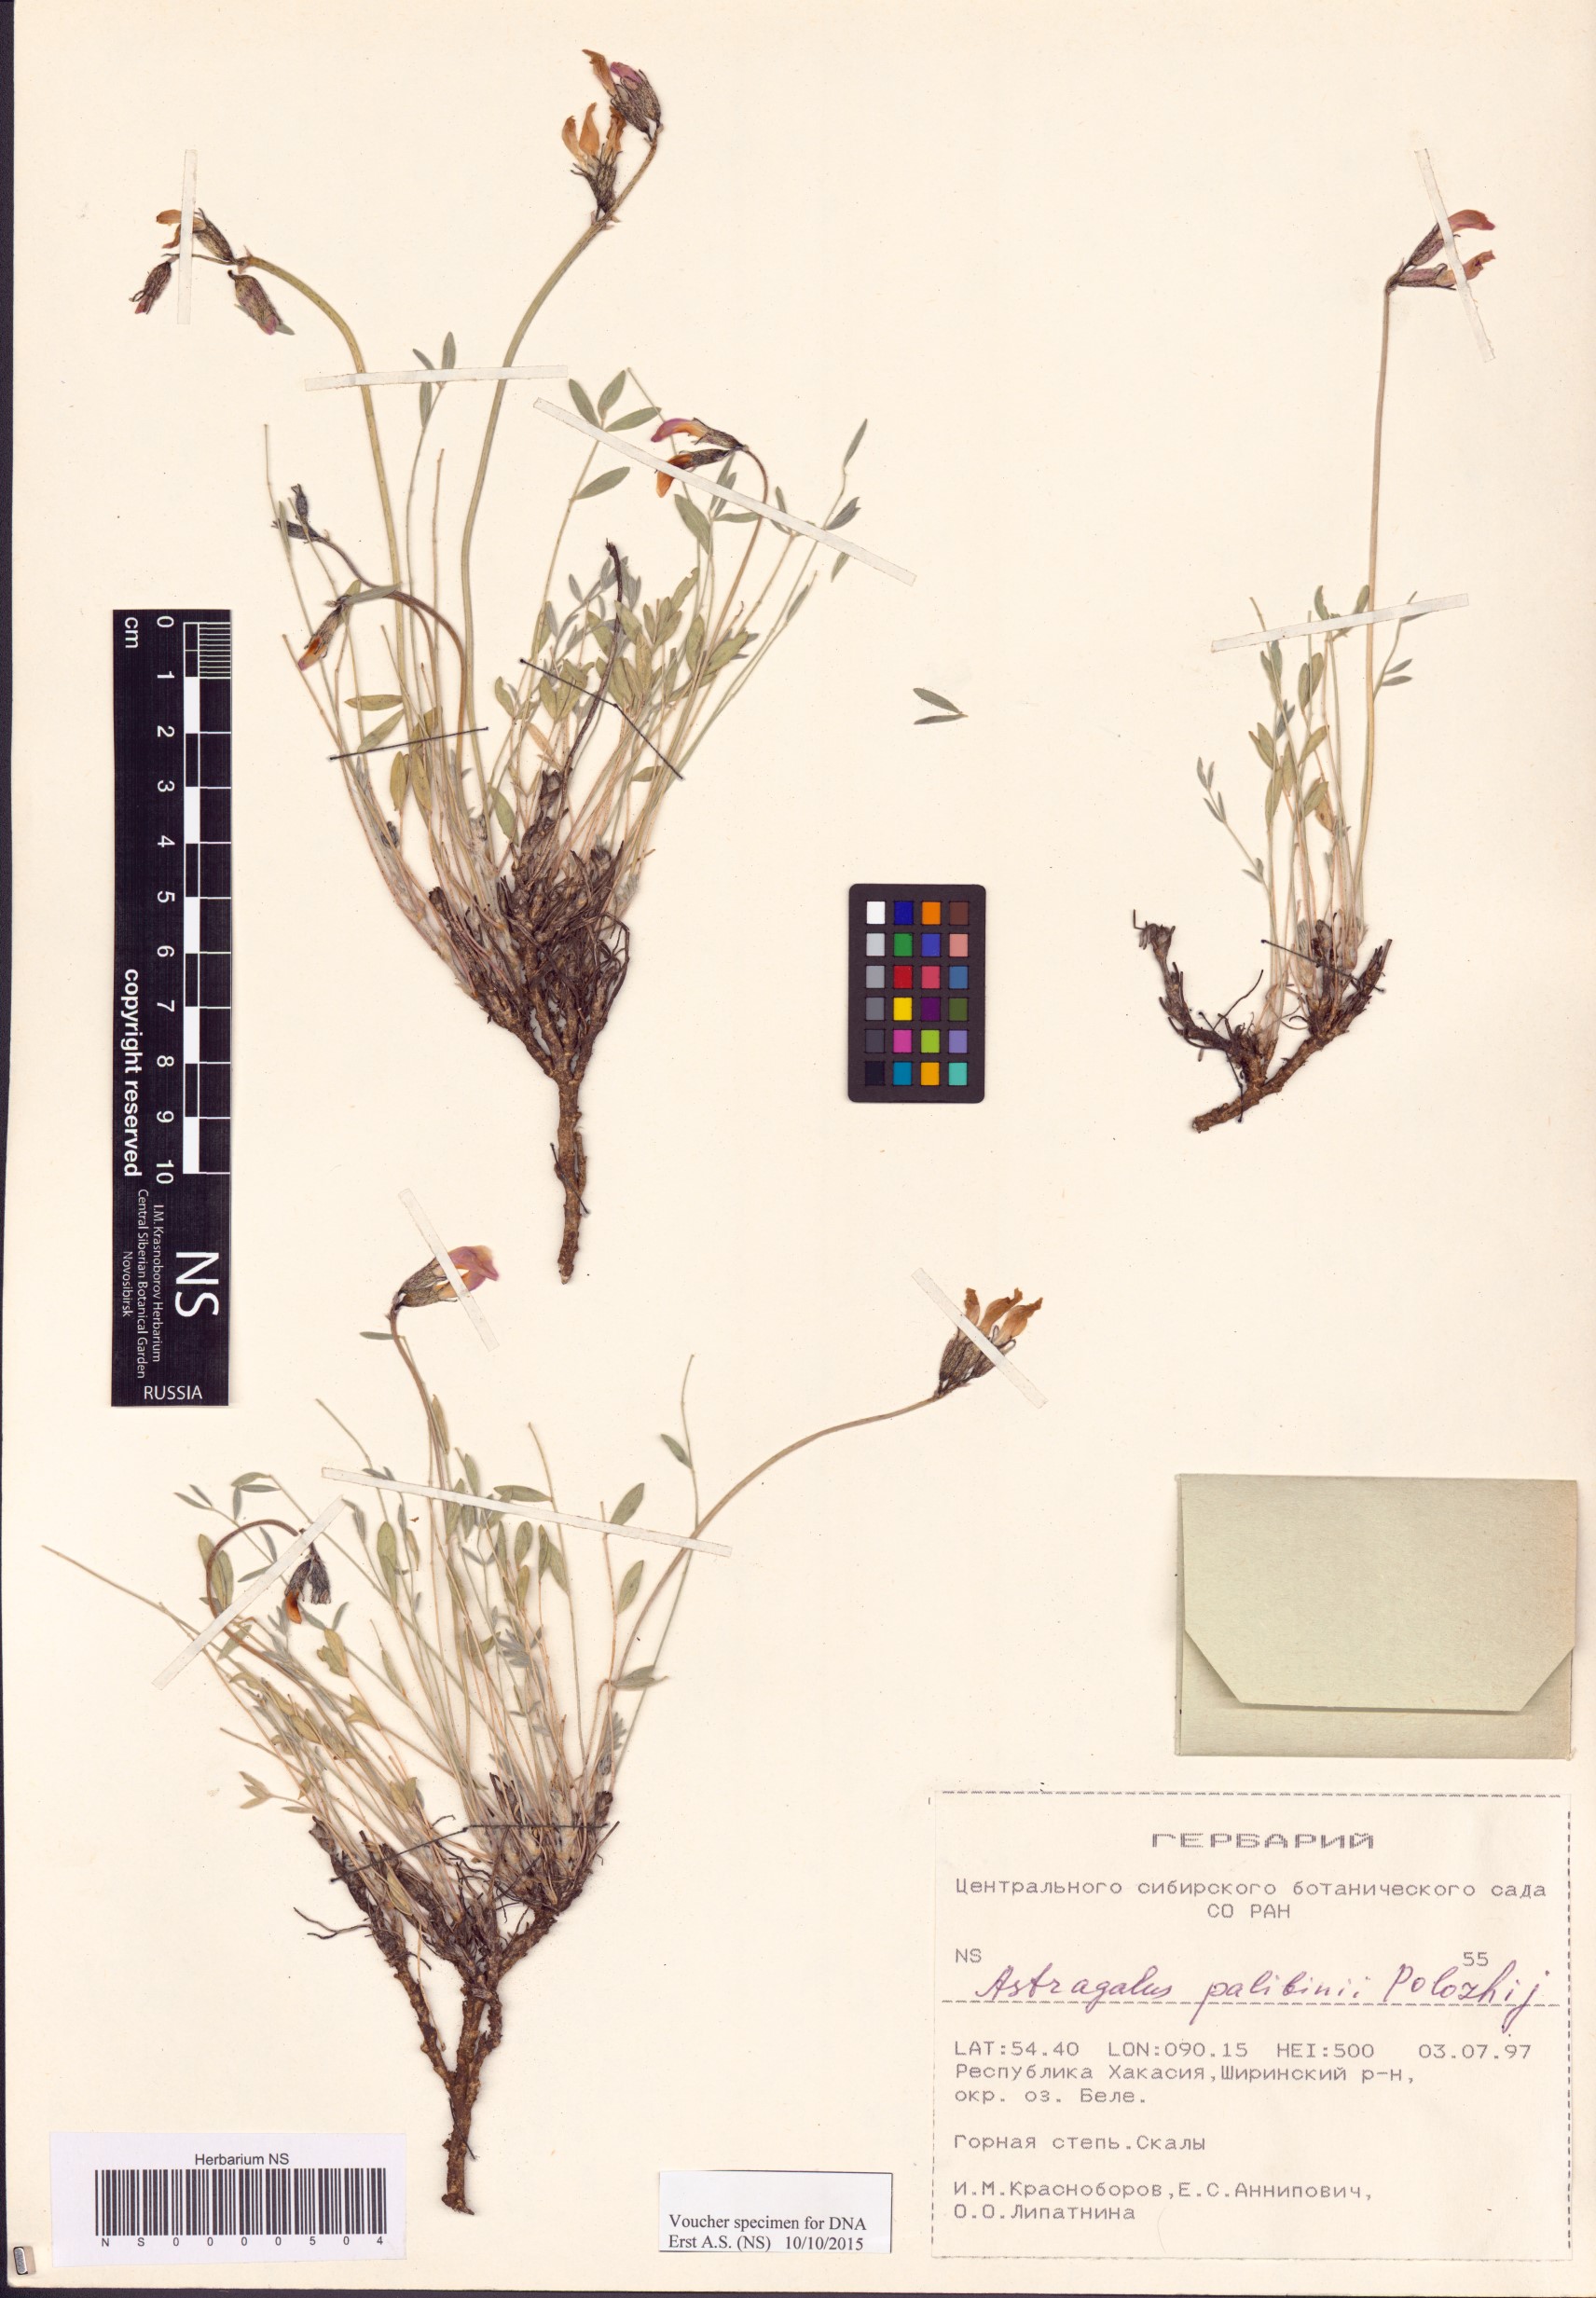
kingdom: Plantae
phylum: Tracheophyta
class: Magnoliopsida
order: Fabales
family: Fabaceae
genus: Astragalus
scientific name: Astragalus palibinii
